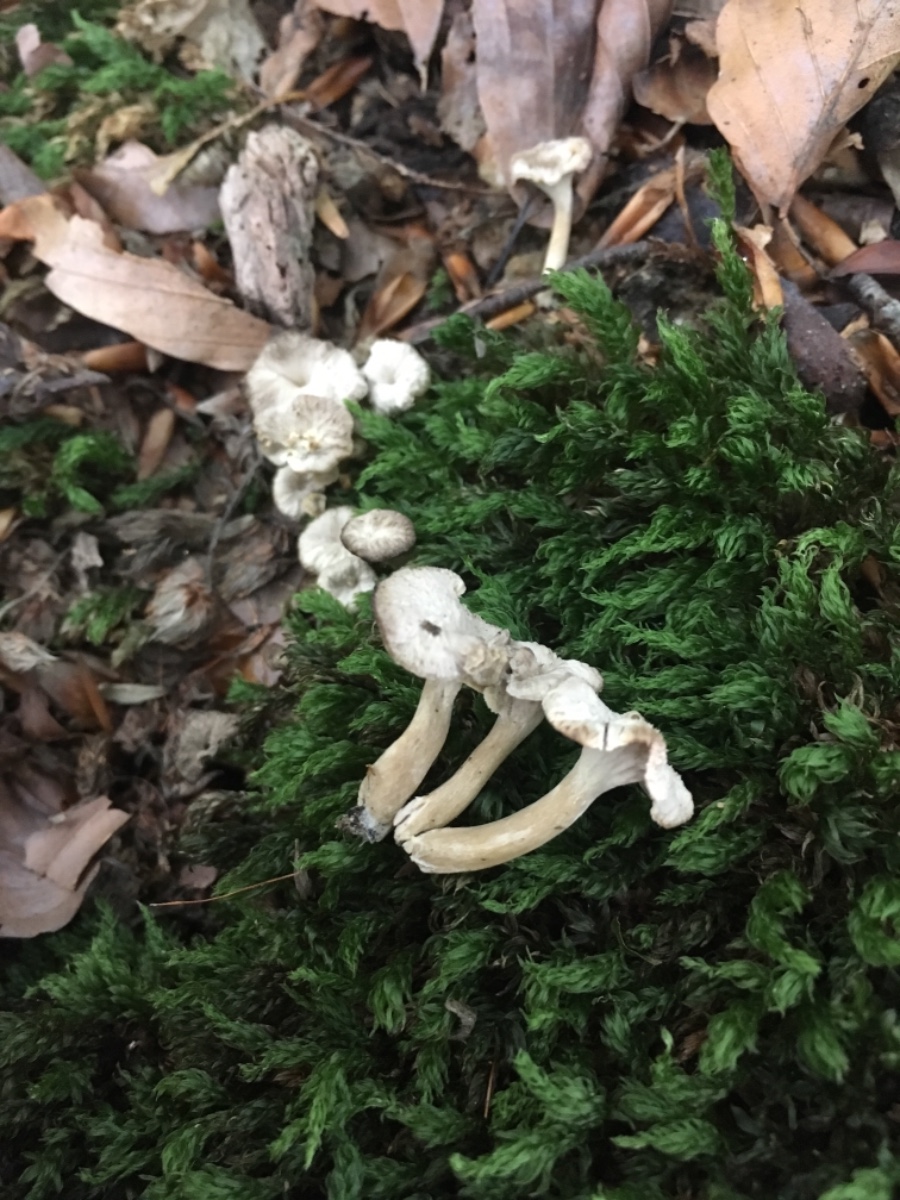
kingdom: Fungi
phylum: Basidiomycota
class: Agaricomycetes
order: Cantharellales
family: Hydnaceae
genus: Craterellus
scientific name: Craterellus undulatus
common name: liden kantarel
